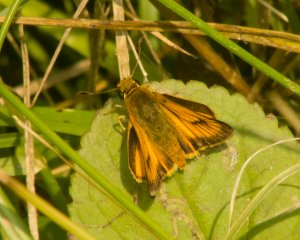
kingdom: Animalia
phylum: Arthropoda
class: Insecta
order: Lepidoptera
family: Hesperiidae
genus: Atrytone
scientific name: Atrytone delaware
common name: Delaware Skipper
